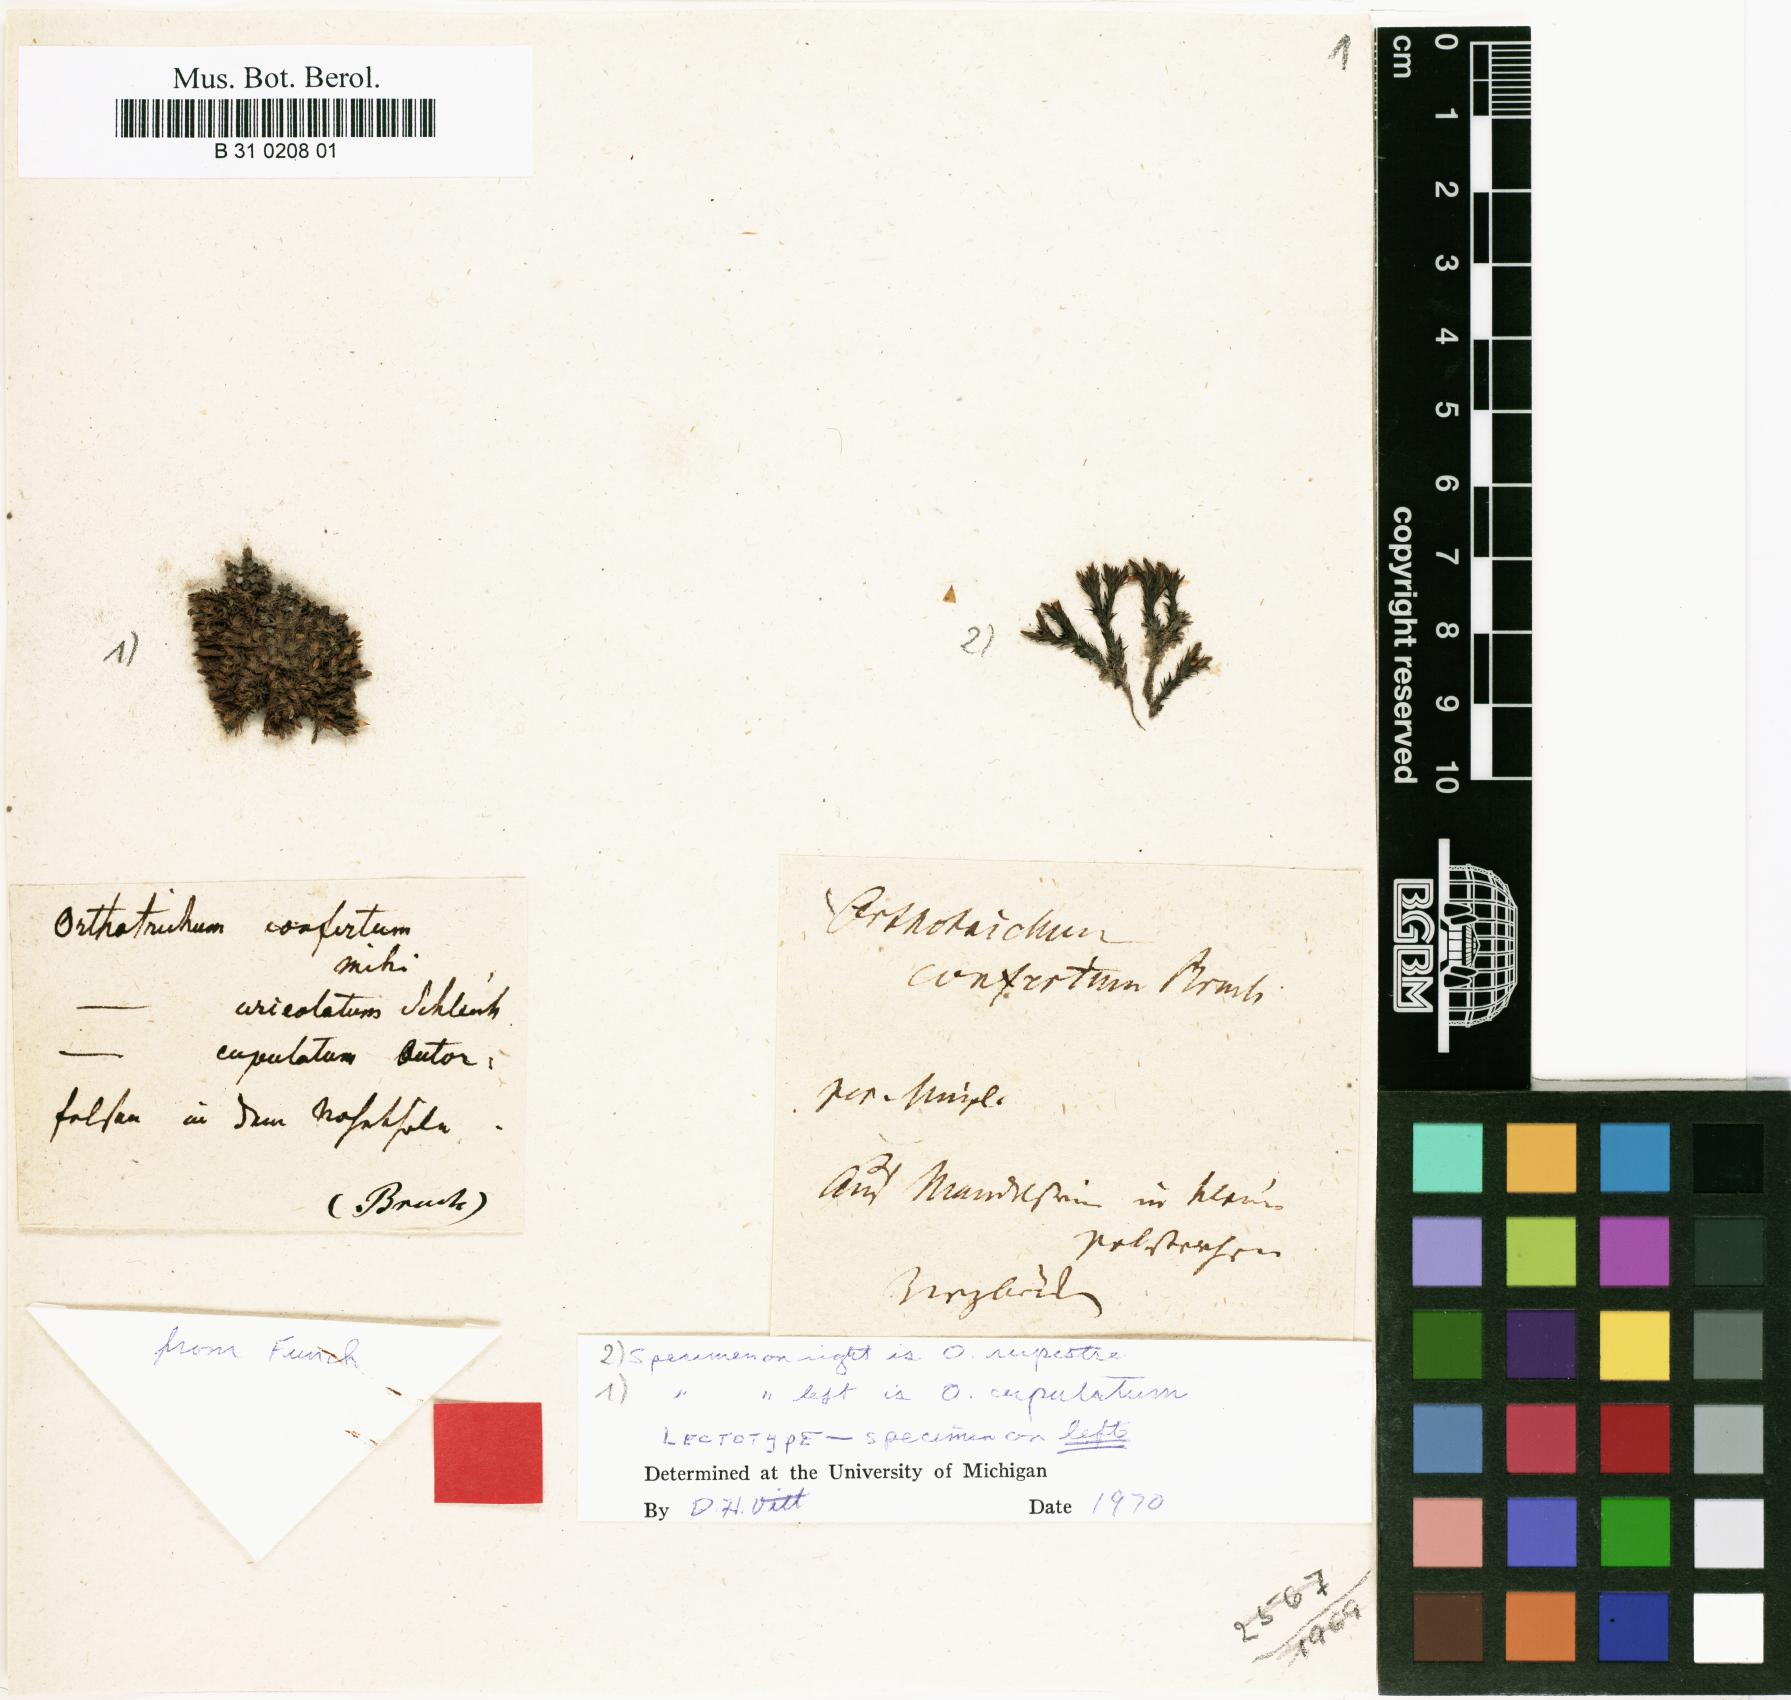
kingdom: Plantae
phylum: Bryophyta
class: Bryopsida
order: Orthotrichales
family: Orthotrichaceae
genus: Orthotrichum
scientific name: Orthotrichum cupulatum
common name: Hooded bristle-moss
